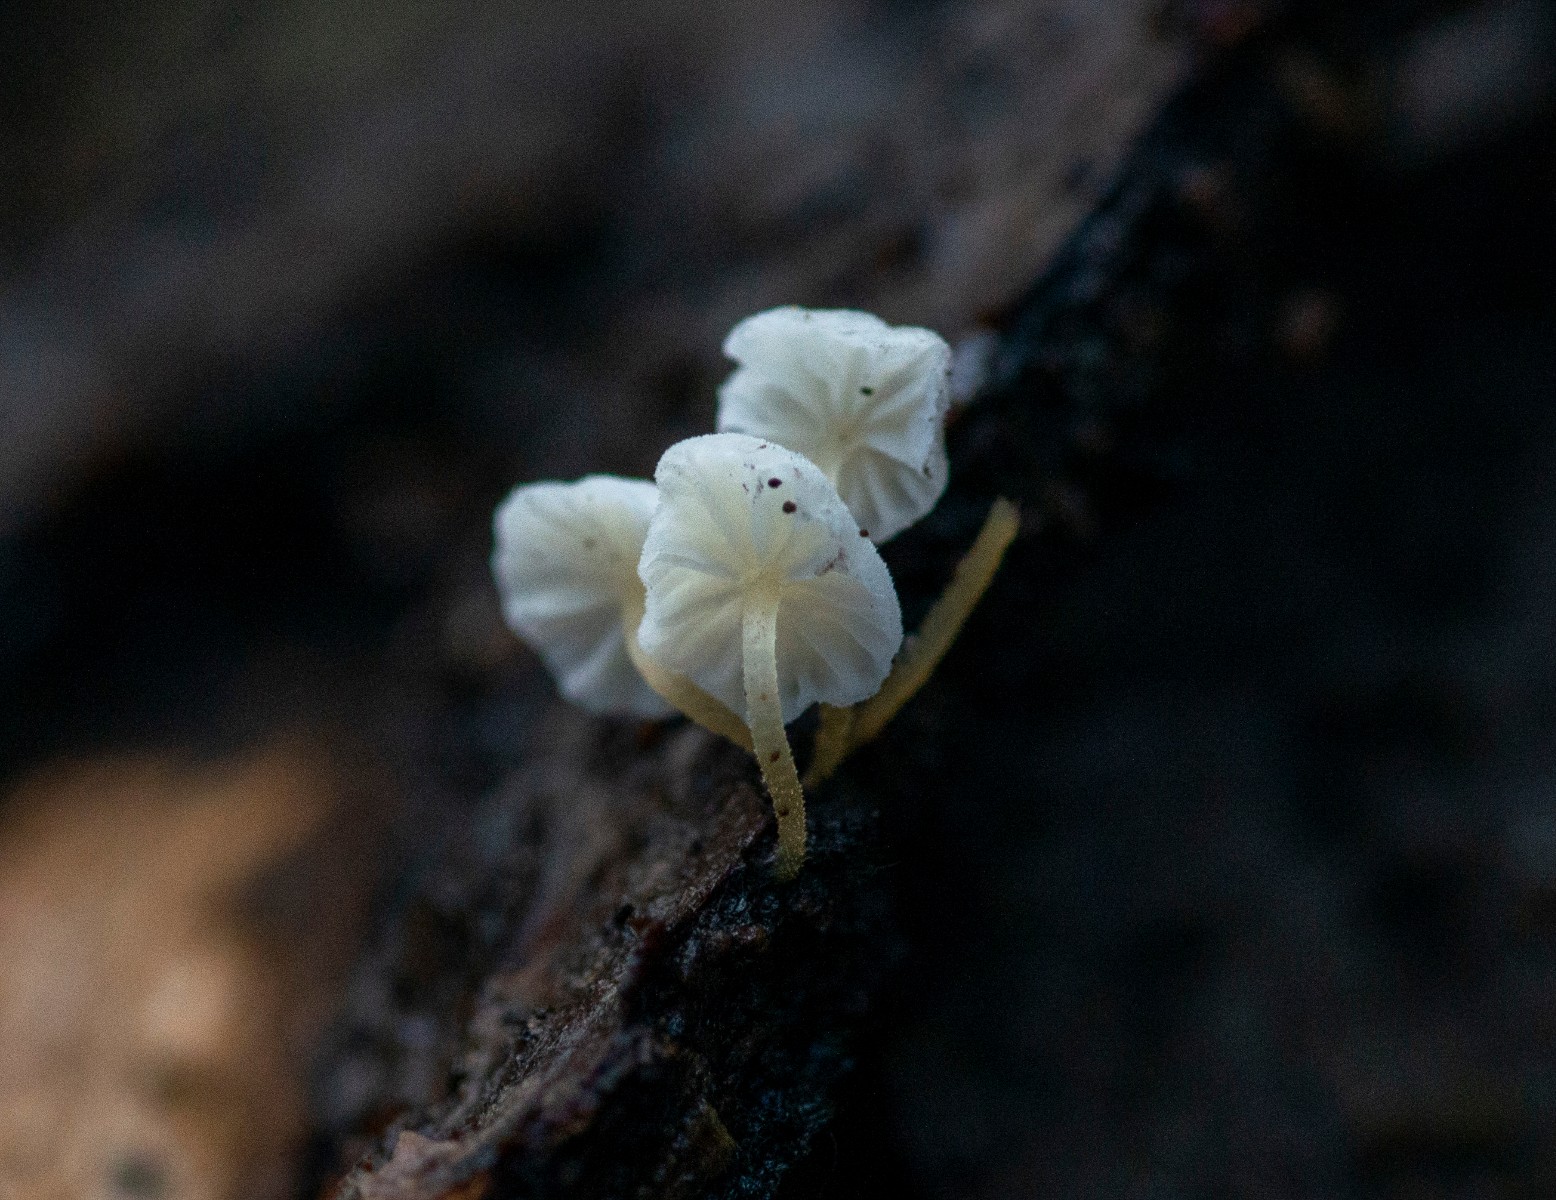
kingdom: Fungi
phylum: Basidiomycota
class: Agaricomycetes
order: Agaricales
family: Porotheleaceae
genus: Phloeomana
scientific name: Phloeomana speirea
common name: kvist-huesvamp
